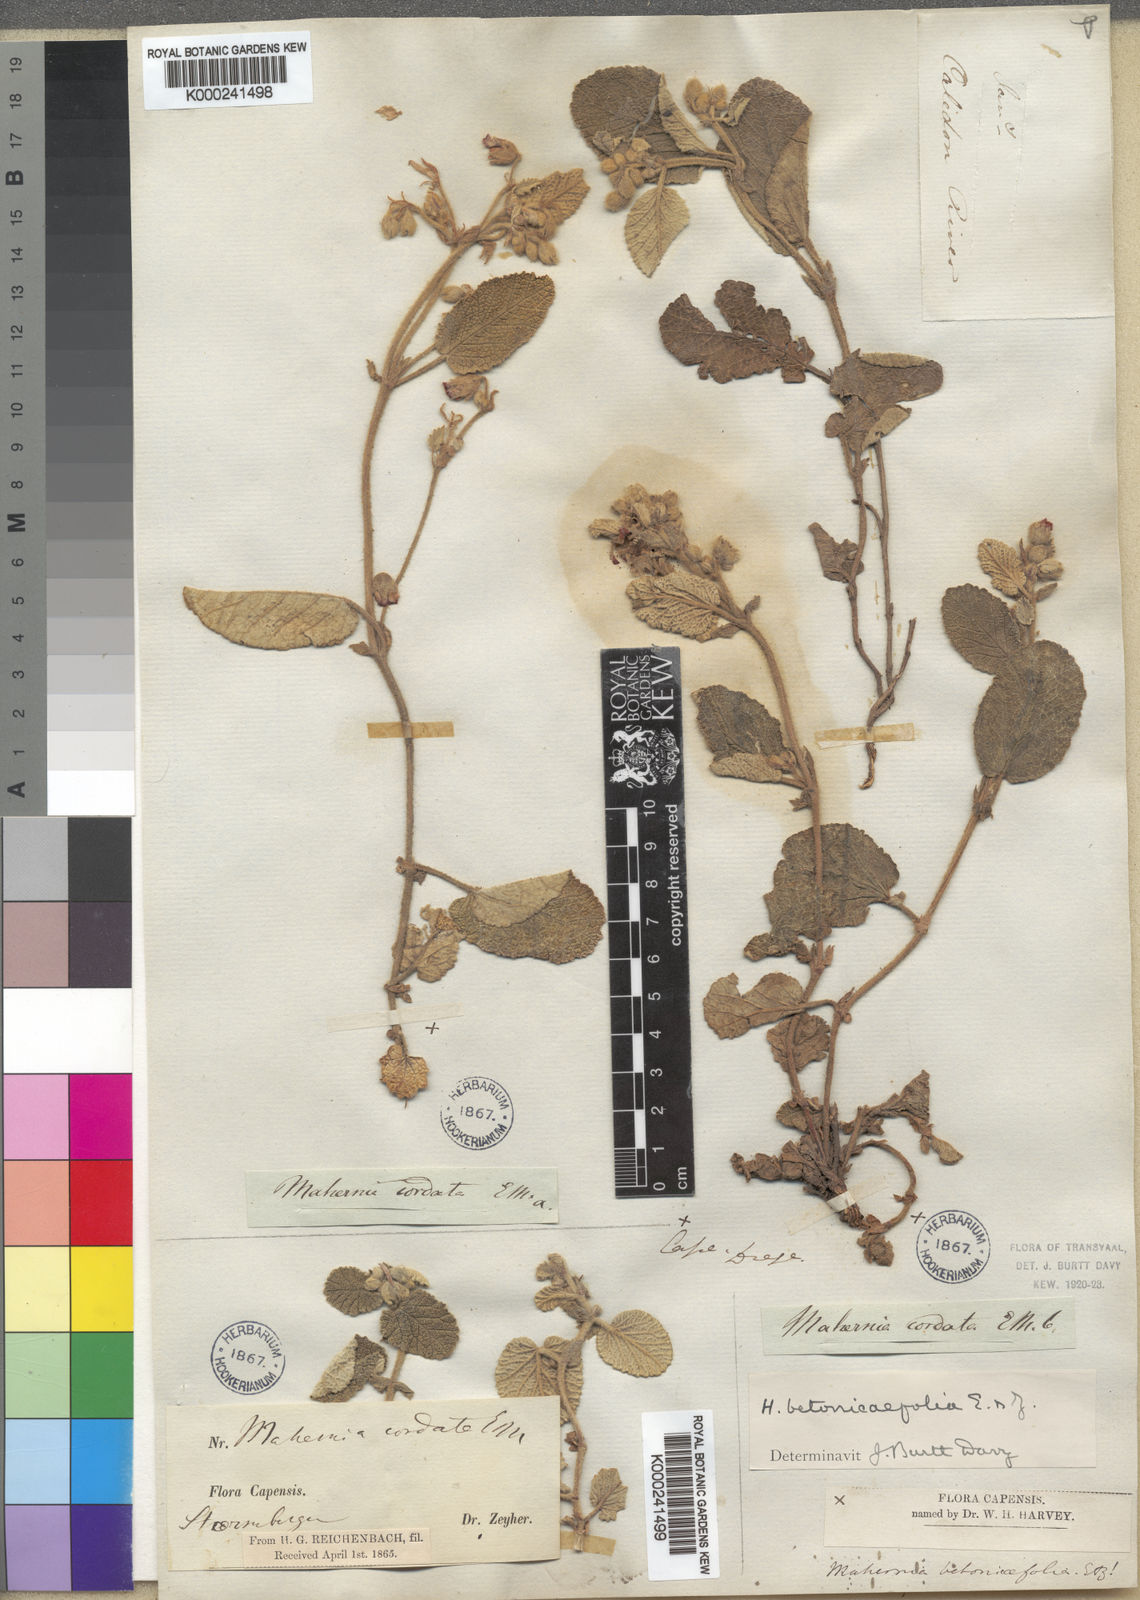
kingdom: Plantae
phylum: Tracheophyta
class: Magnoliopsida
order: Malvales
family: Malvaceae
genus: Hermannia
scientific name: Hermannia geniculata
